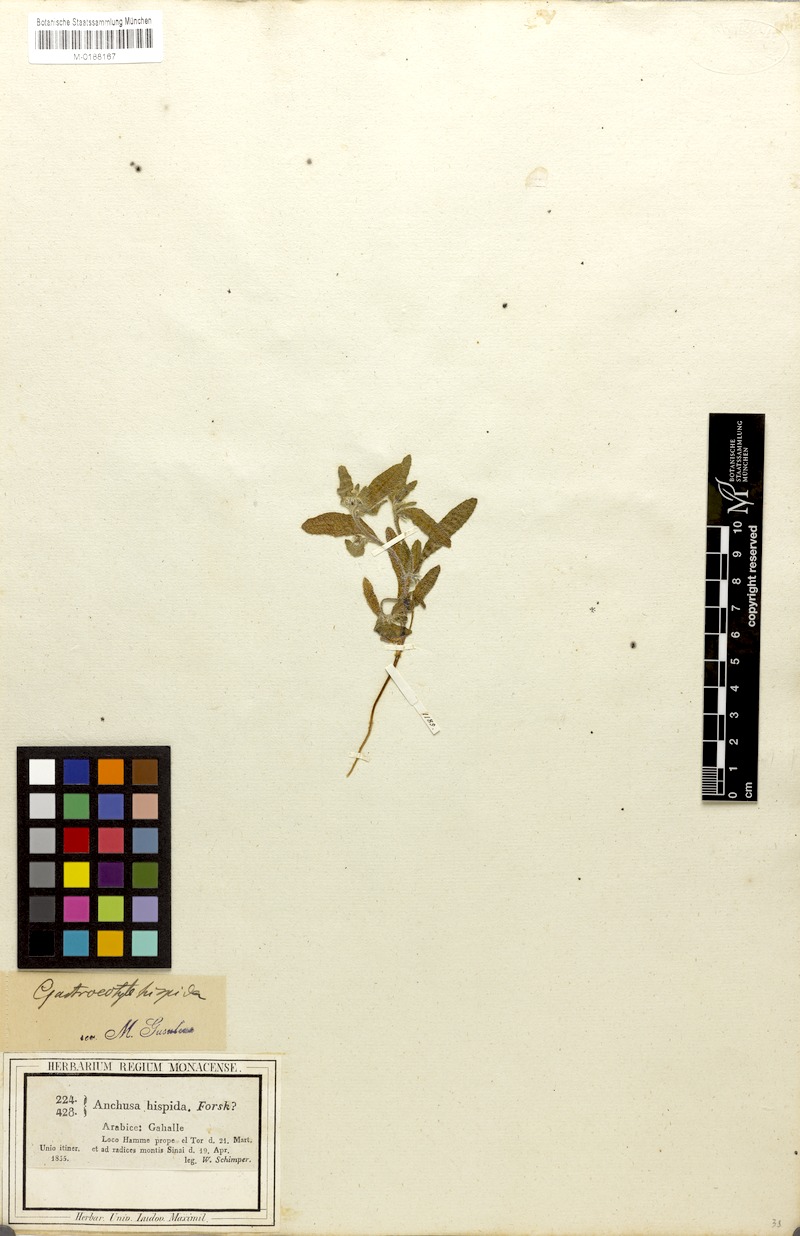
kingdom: Plantae
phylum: Tracheophyta
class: Magnoliopsida
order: Boraginales
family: Boraginaceae
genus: Gastrocotyle
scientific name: Gastrocotyle hispida
